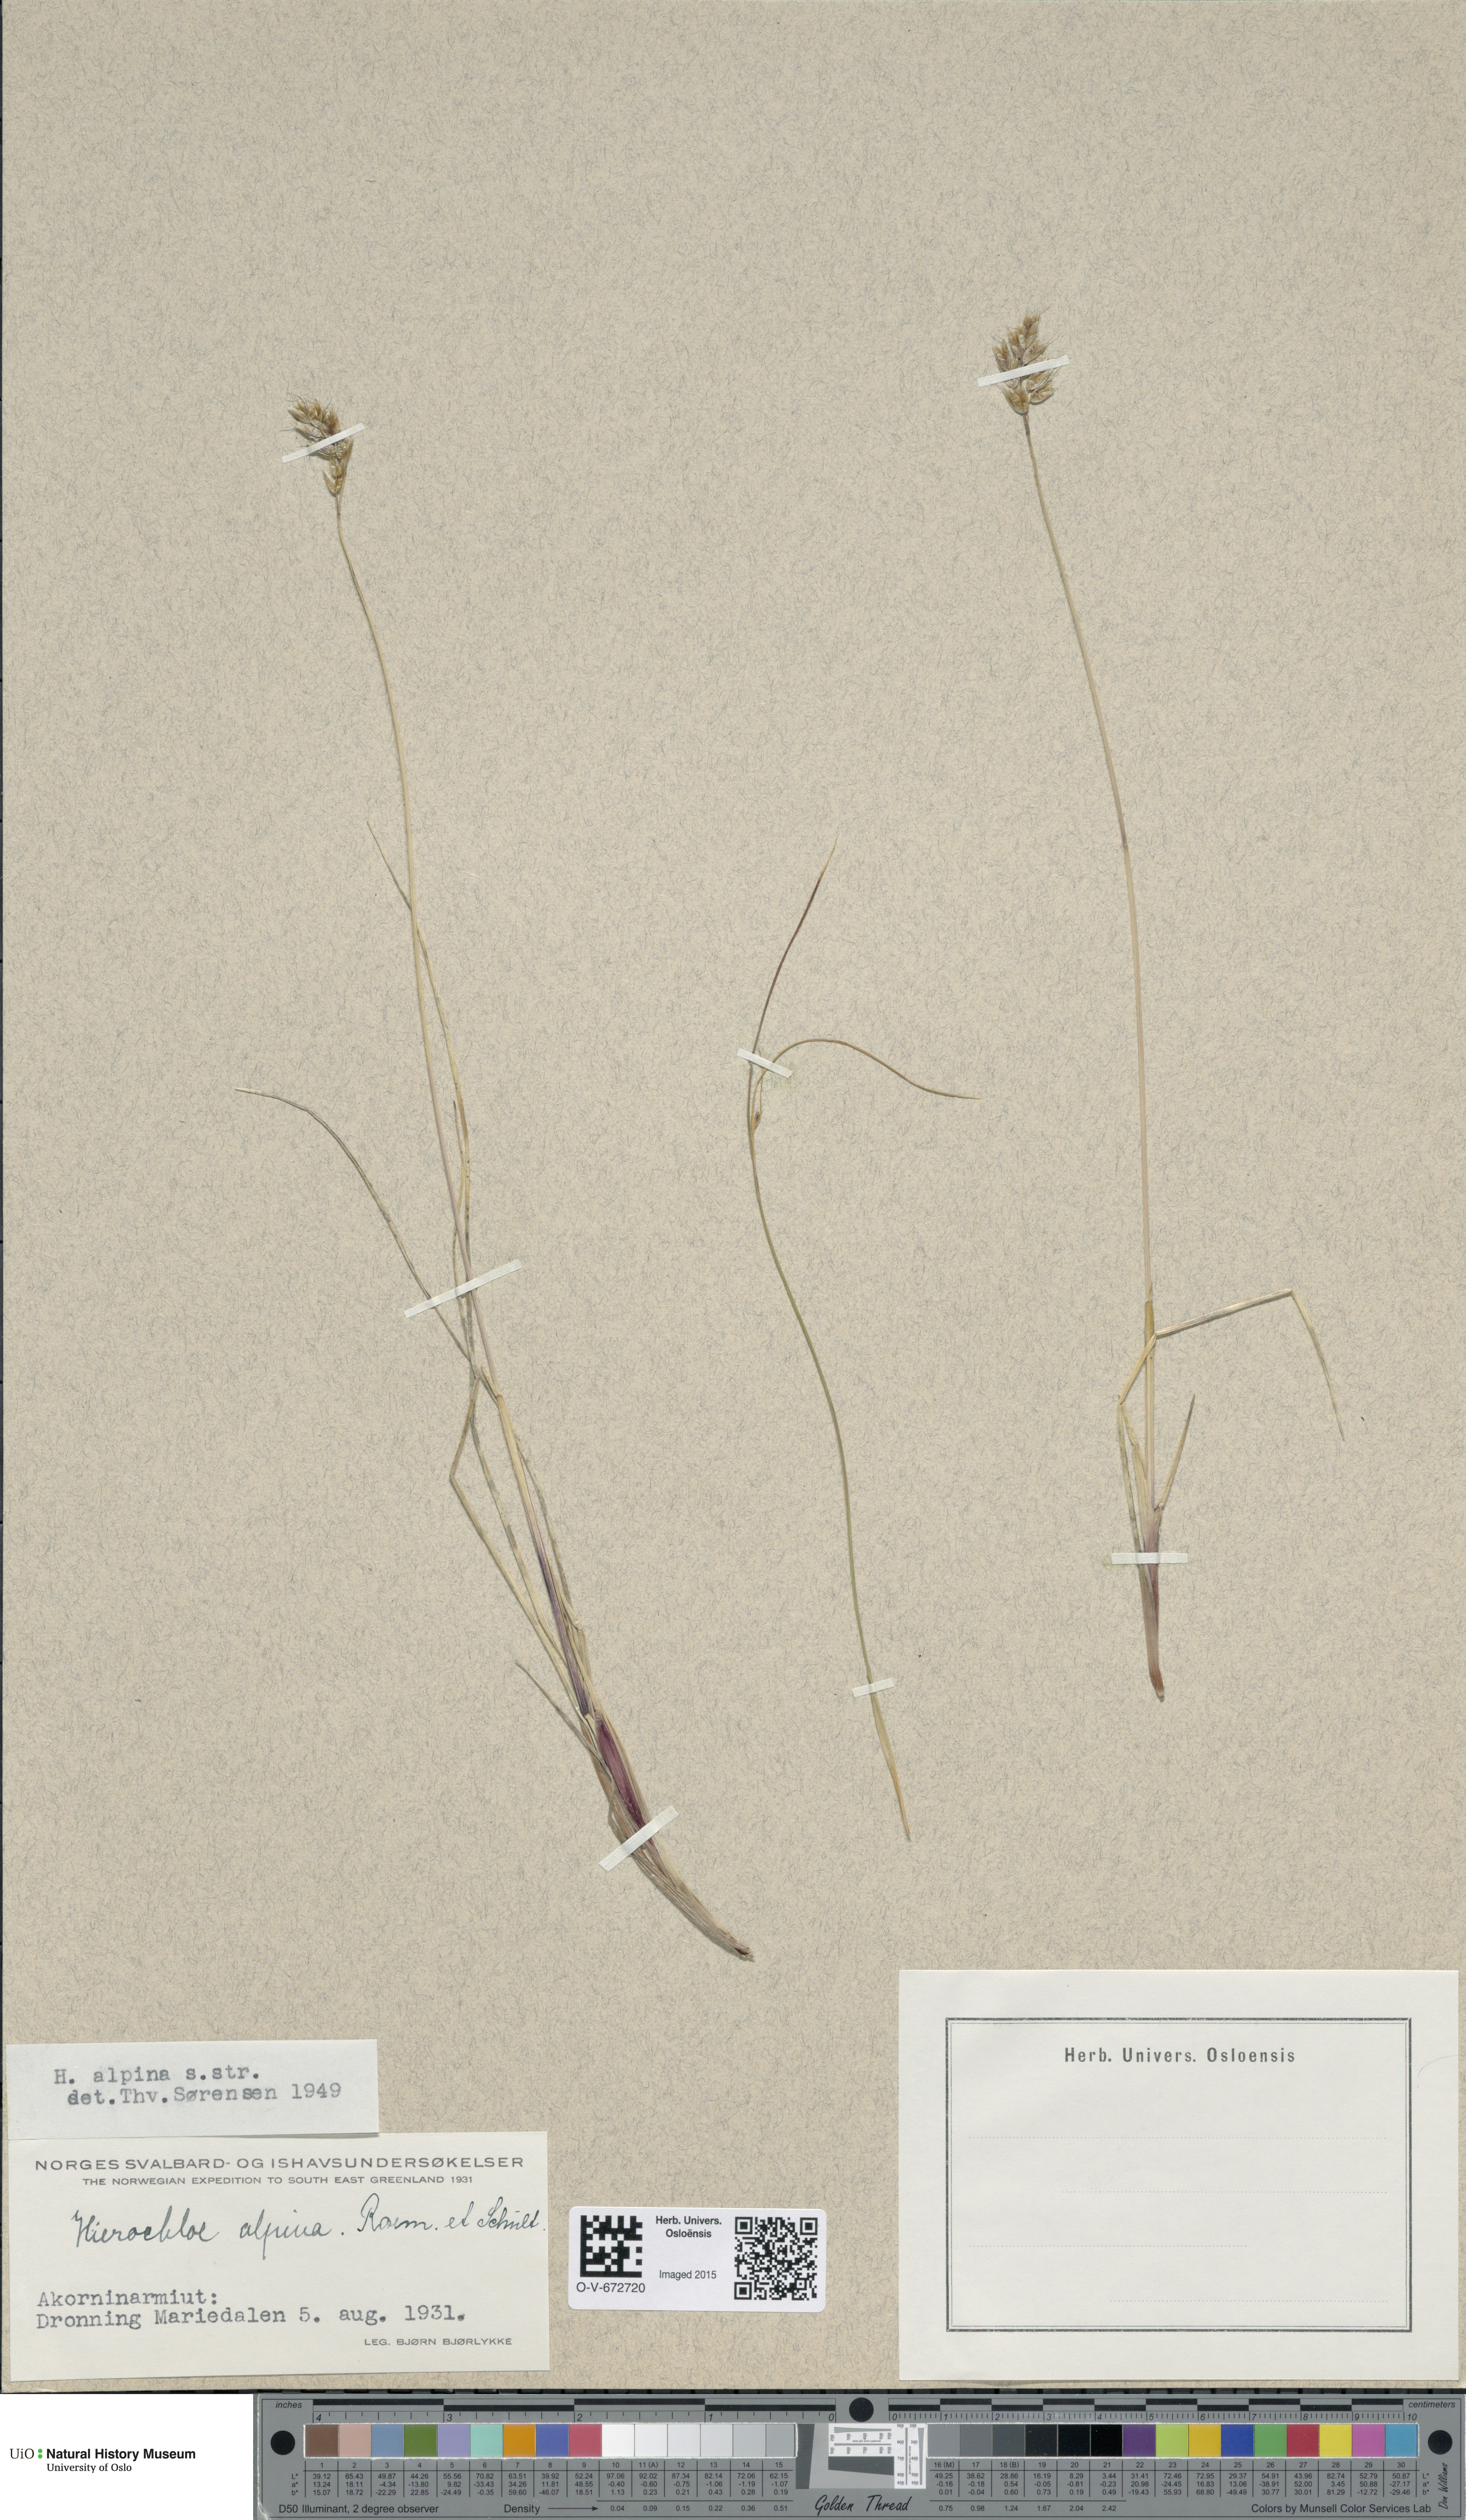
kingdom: Plantae
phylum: Tracheophyta
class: Liliopsida
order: Poales
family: Poaceae
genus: Anthoxanthum
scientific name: Anthoxanthum monticola
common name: Alpine sweetgrass
